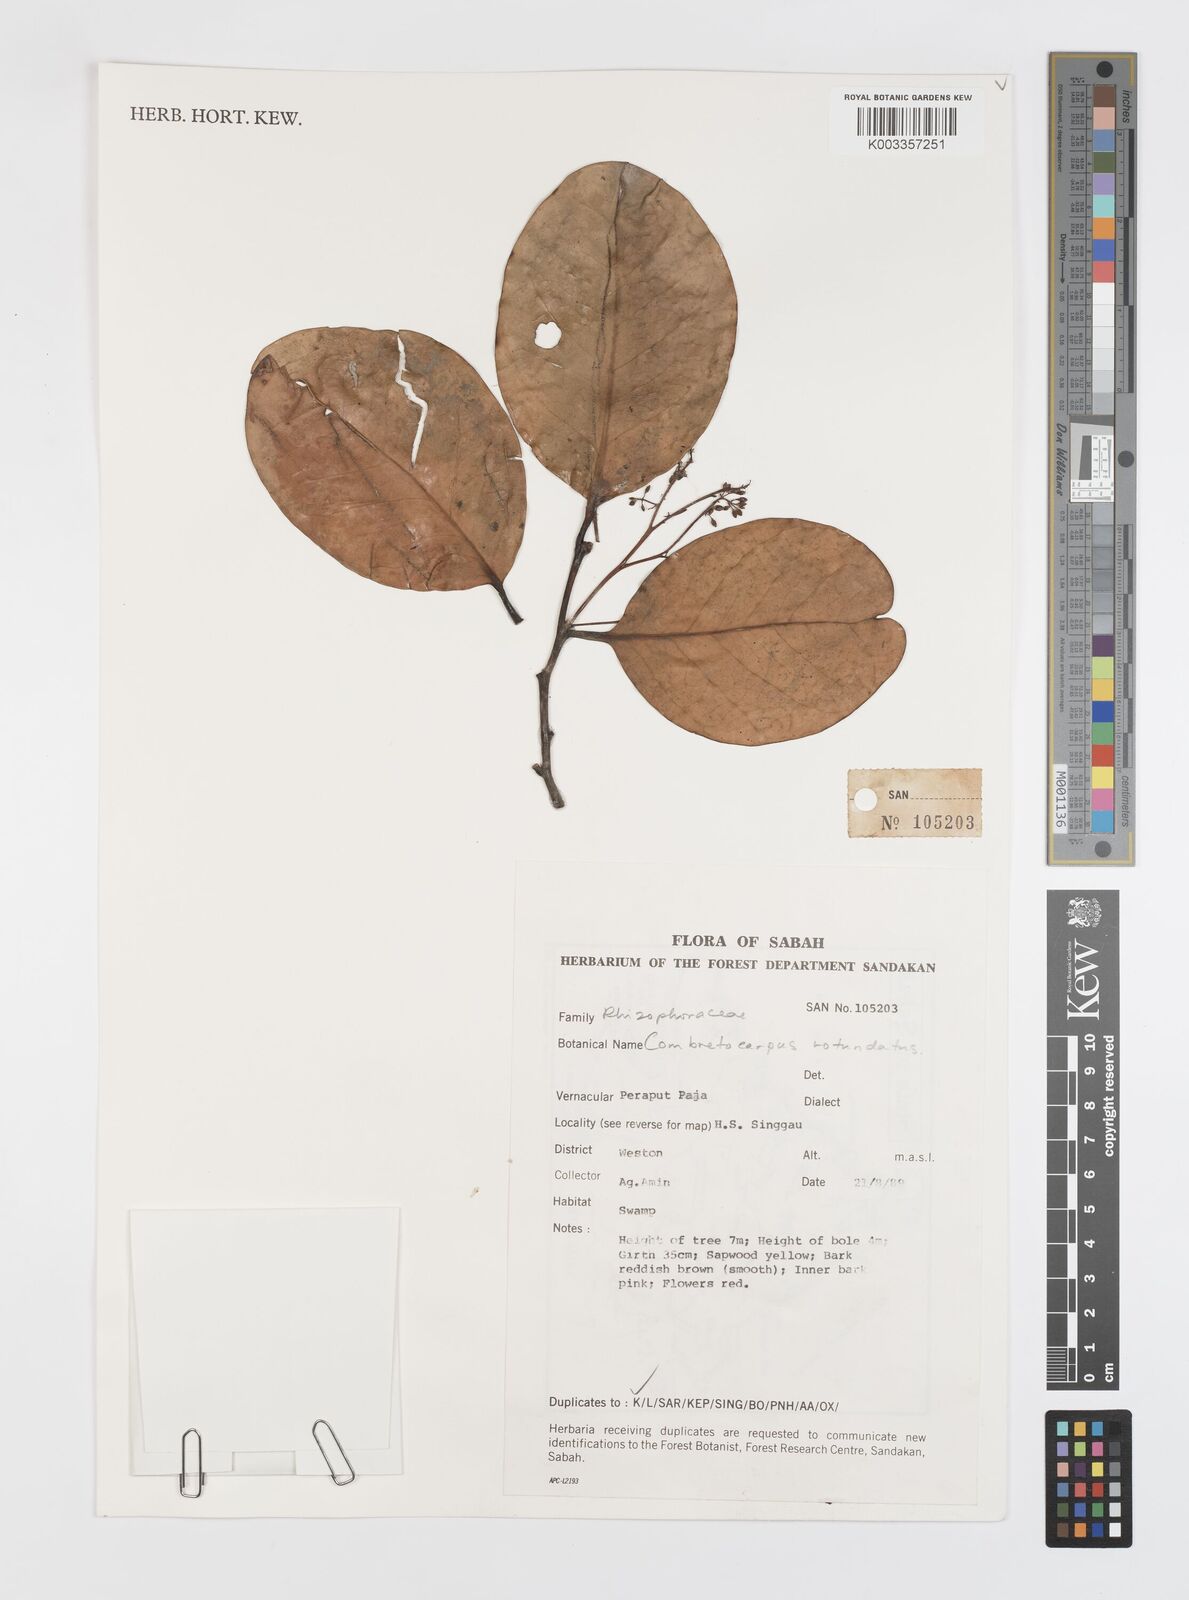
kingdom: Plantae
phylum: Tracheophyta
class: Magnoliopsida
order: Cucurbitales
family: Anisophylleaceae
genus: Combretocarpus
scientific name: Combretocarpus rotundatus
